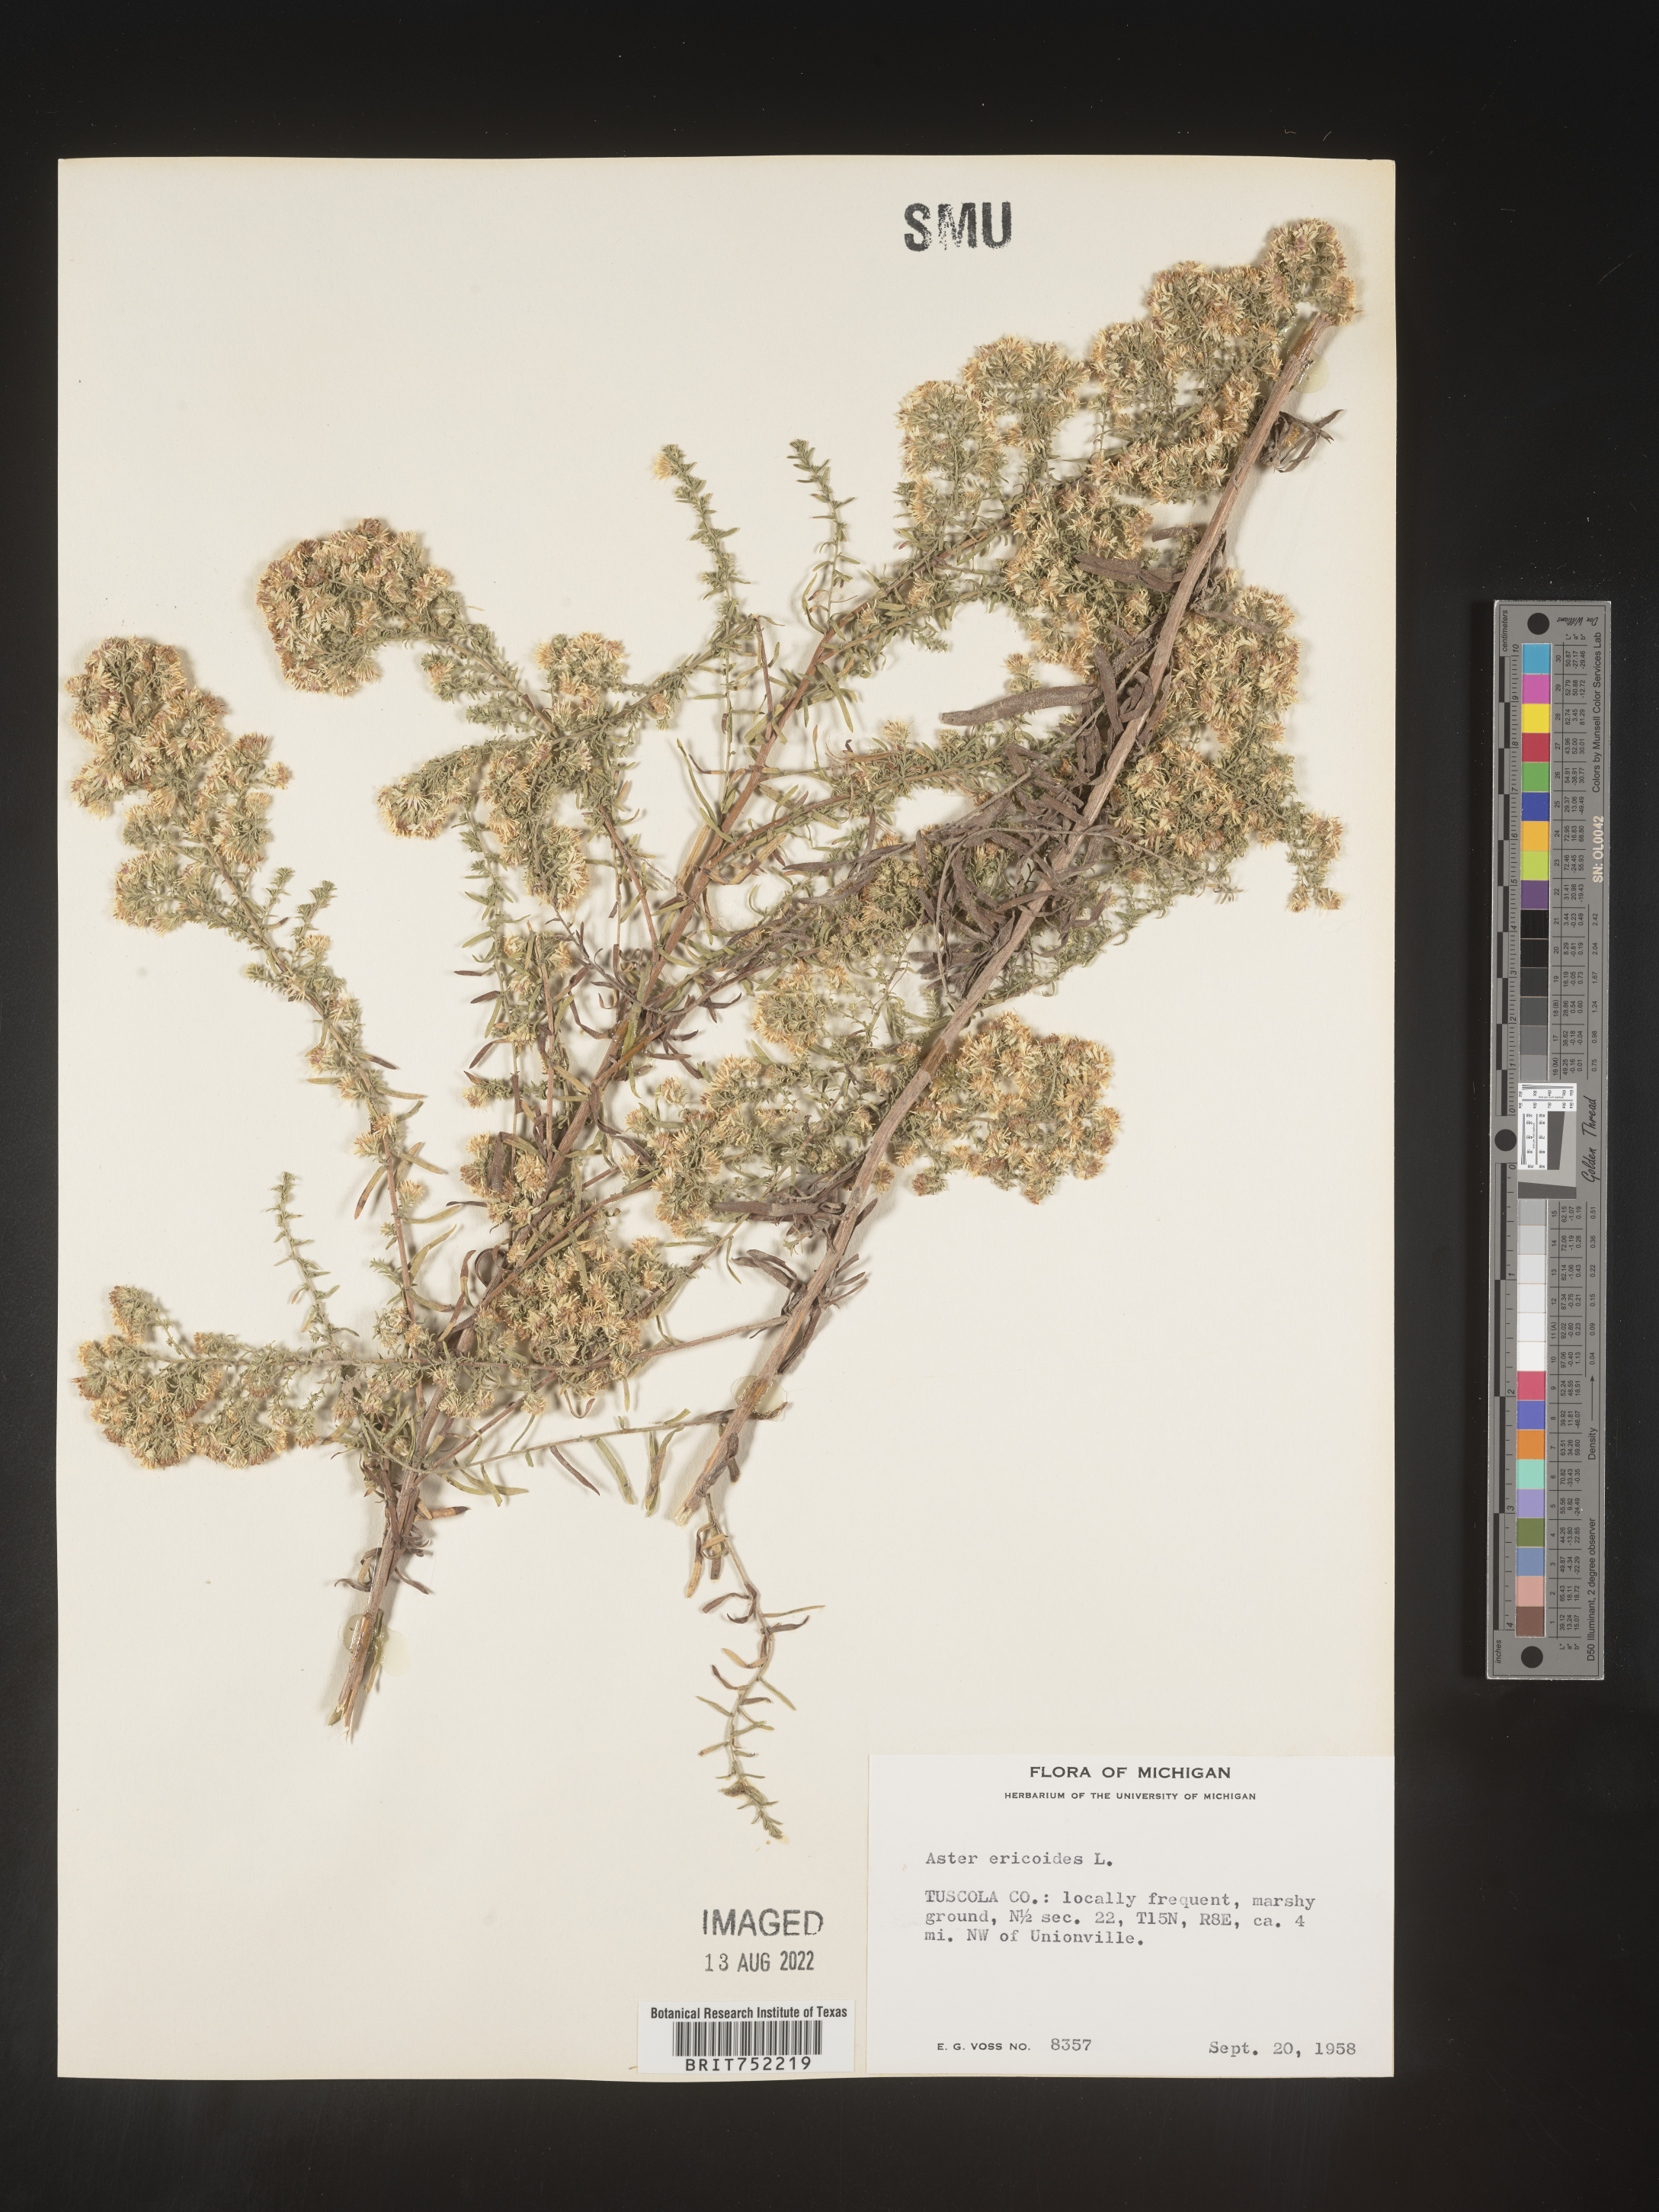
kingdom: Plantae
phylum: Tracheophyta
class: Magnoliopsida
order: Asterales
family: Asteraceae
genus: Symphyotrichum
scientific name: Symphyotrichum ericoides
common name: Heath aster
